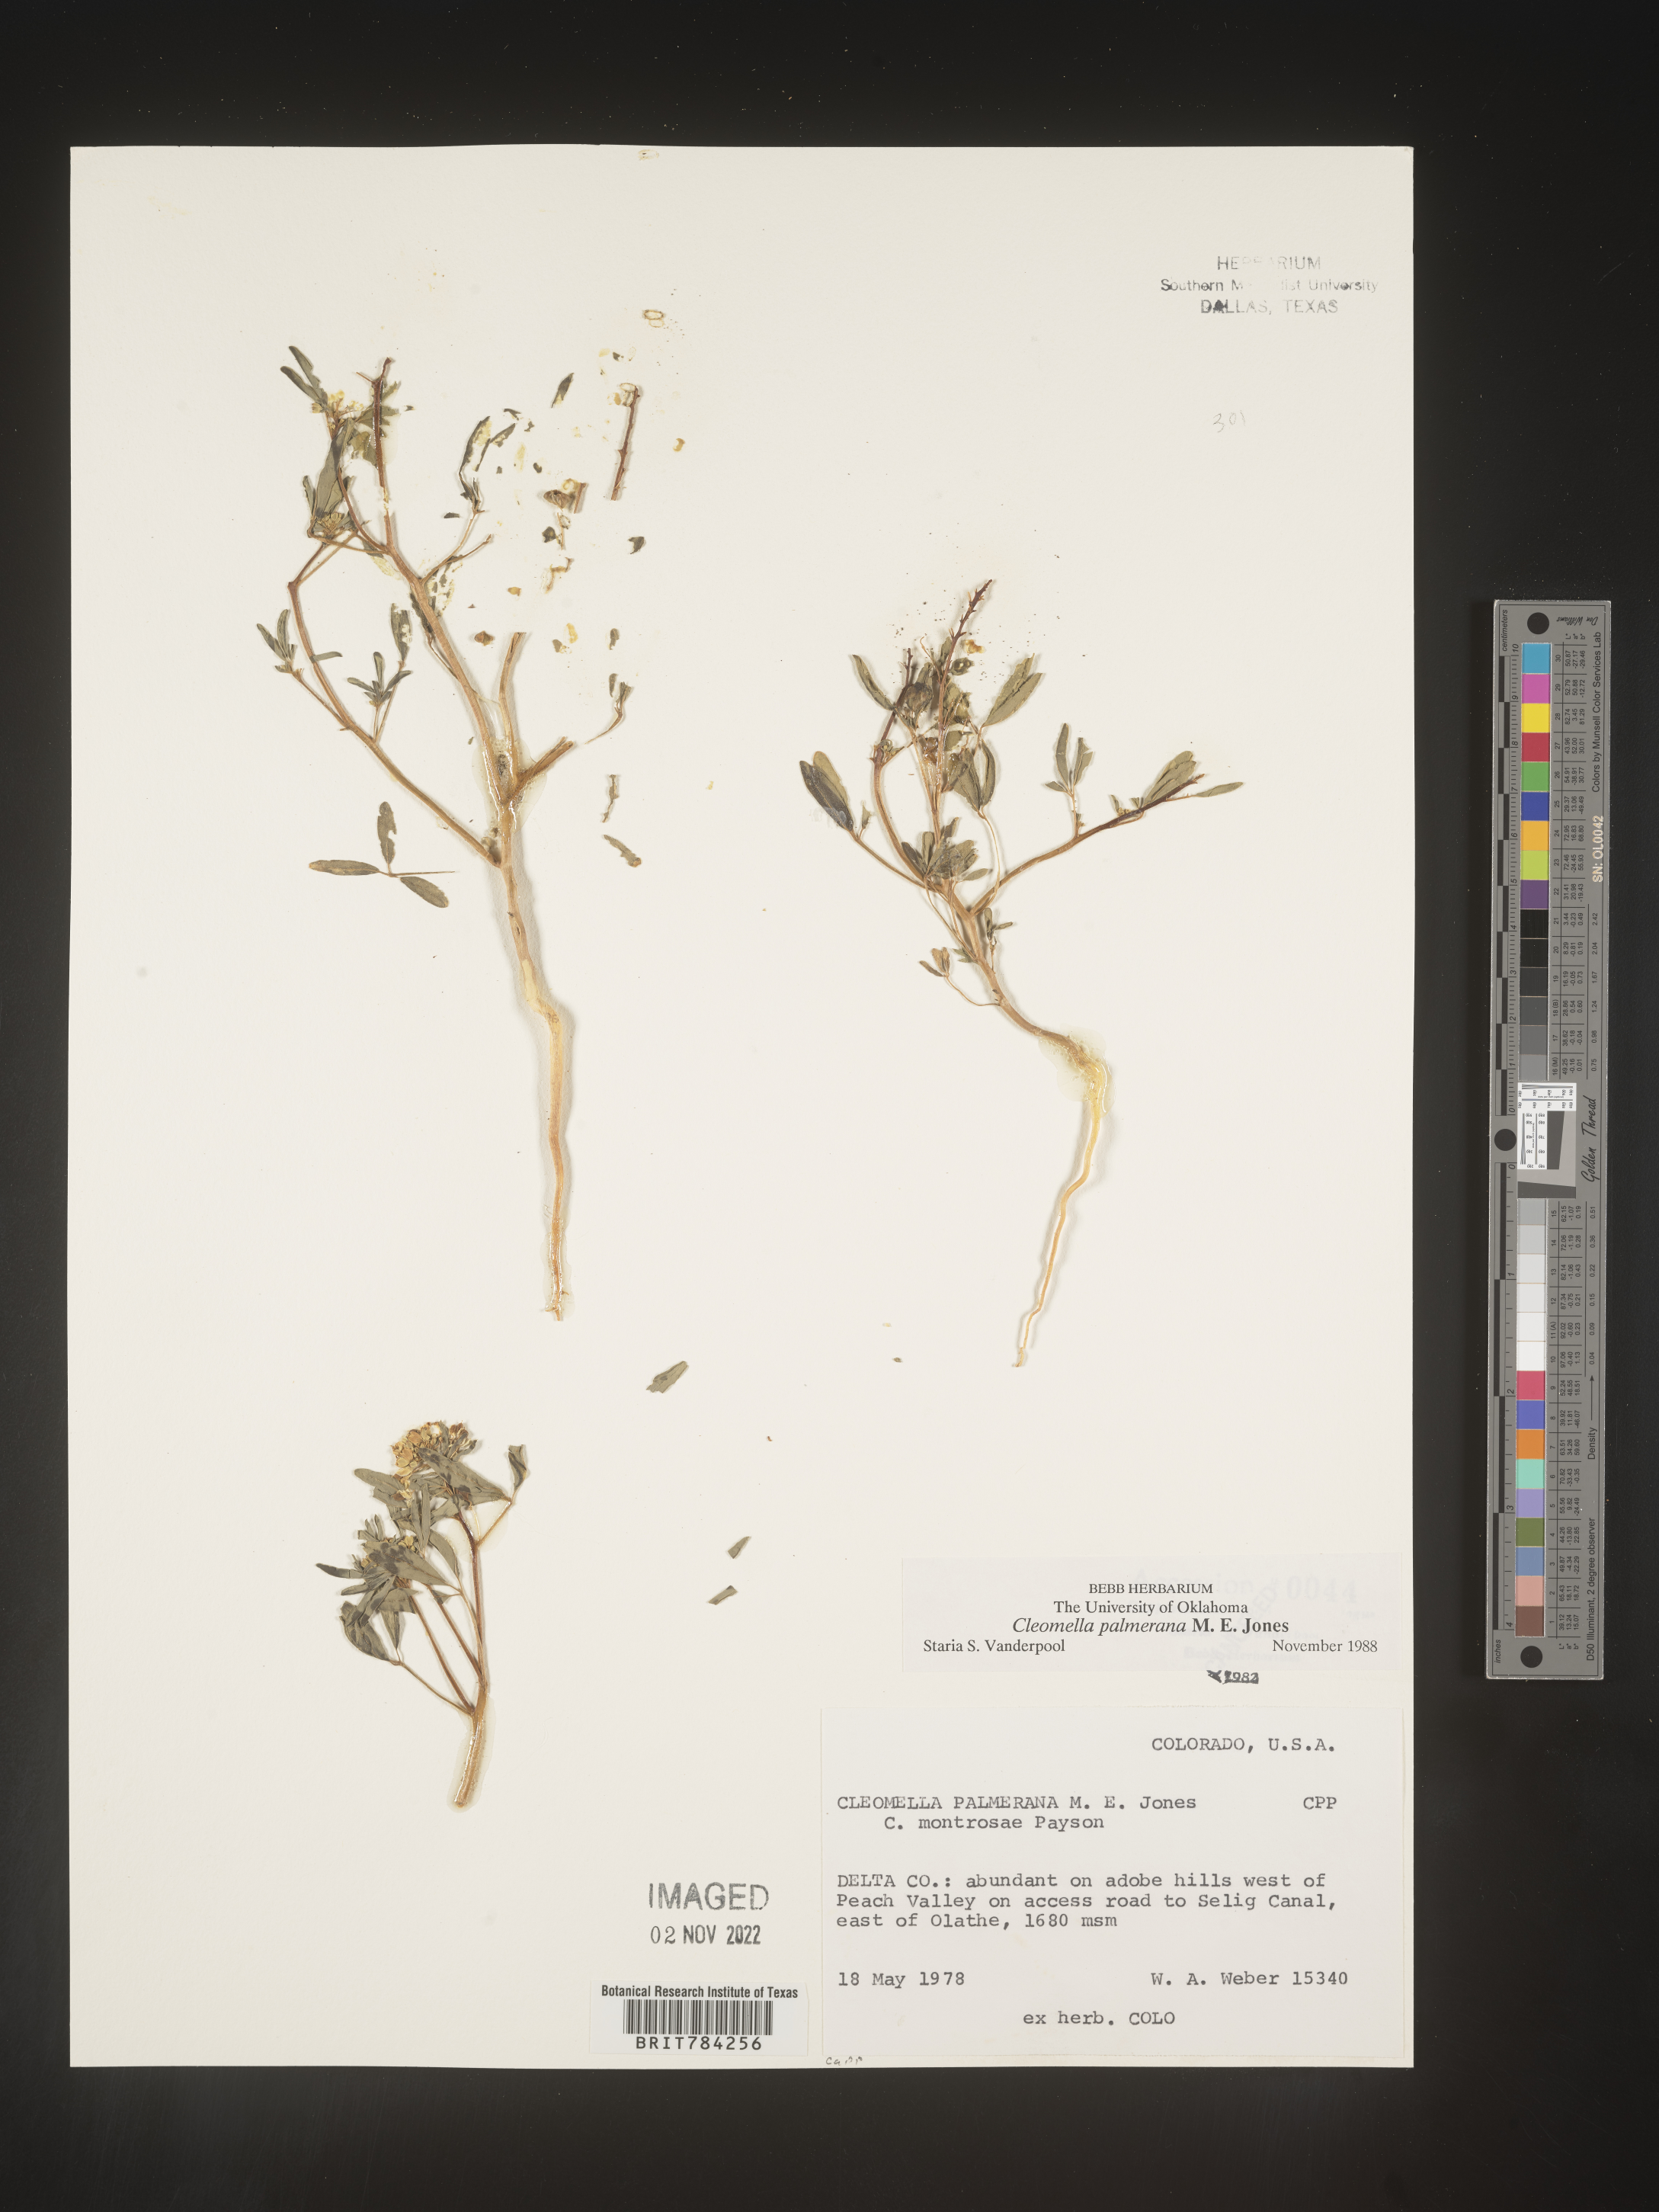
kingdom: Plantae
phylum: Tracheophyta
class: Magnoliopsida
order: Brassicales
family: Cleomaceae
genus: Cleomella
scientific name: Cleomella
